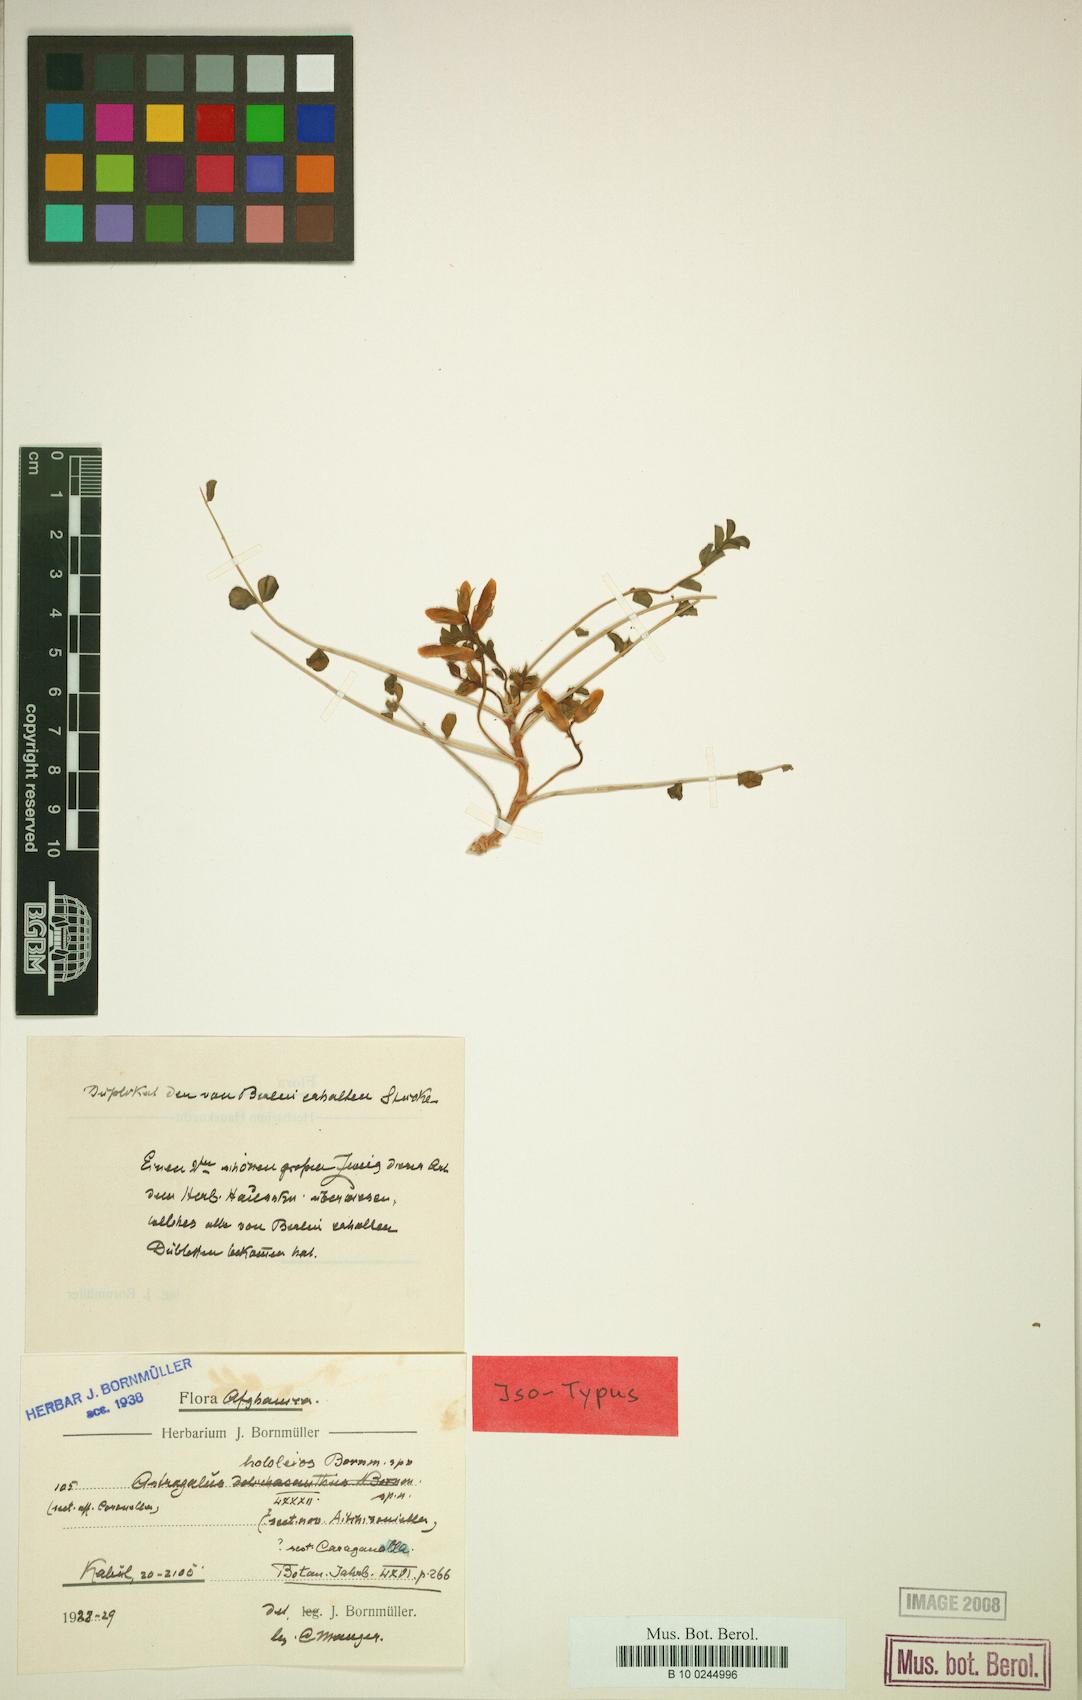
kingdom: Plantae
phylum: Tracheophyta
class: Magnoliopsida
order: Fabales
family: Fabaceae
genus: Astragalus
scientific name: Astragalus hololeios
